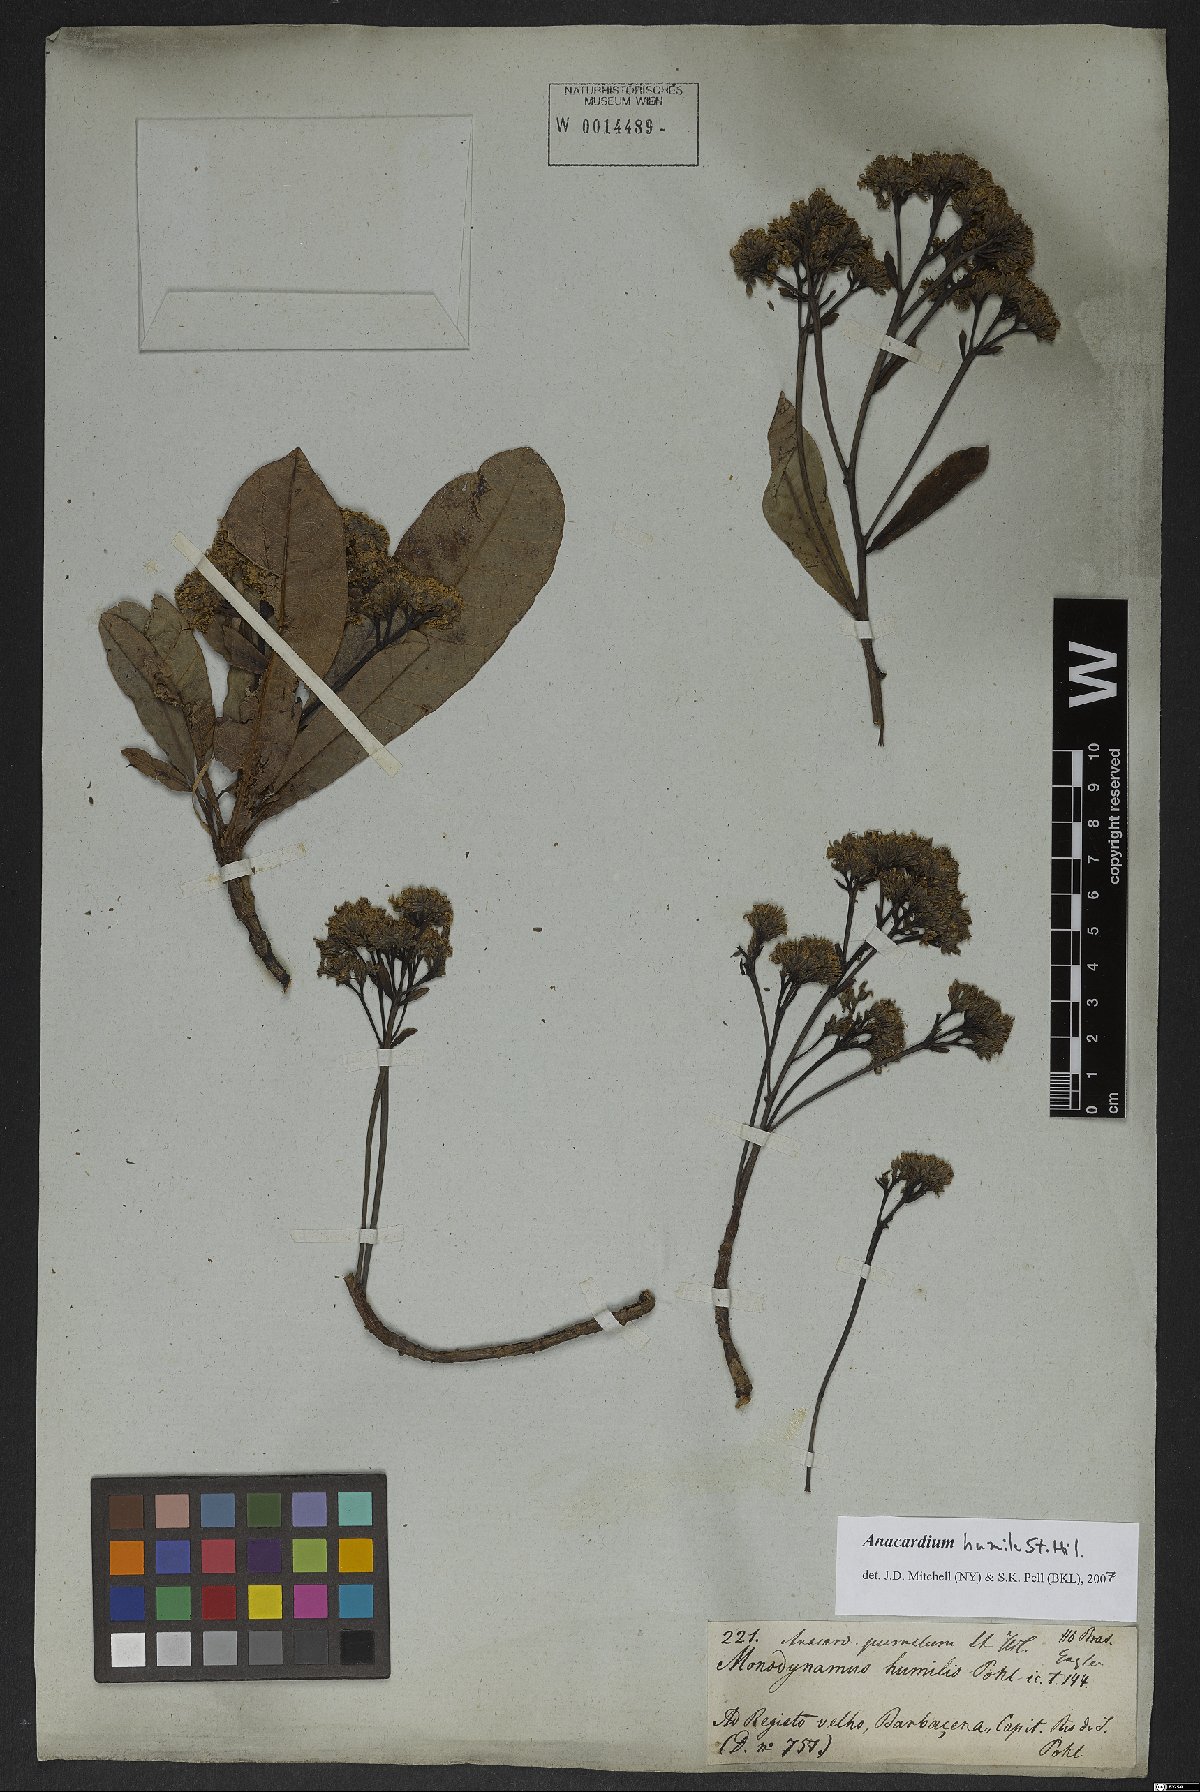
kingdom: Plantae
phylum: Tracheophyta
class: Magnoliopsida
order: Sapindales
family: Anacardiaceae
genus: Anacardium
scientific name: Anacardium humile
